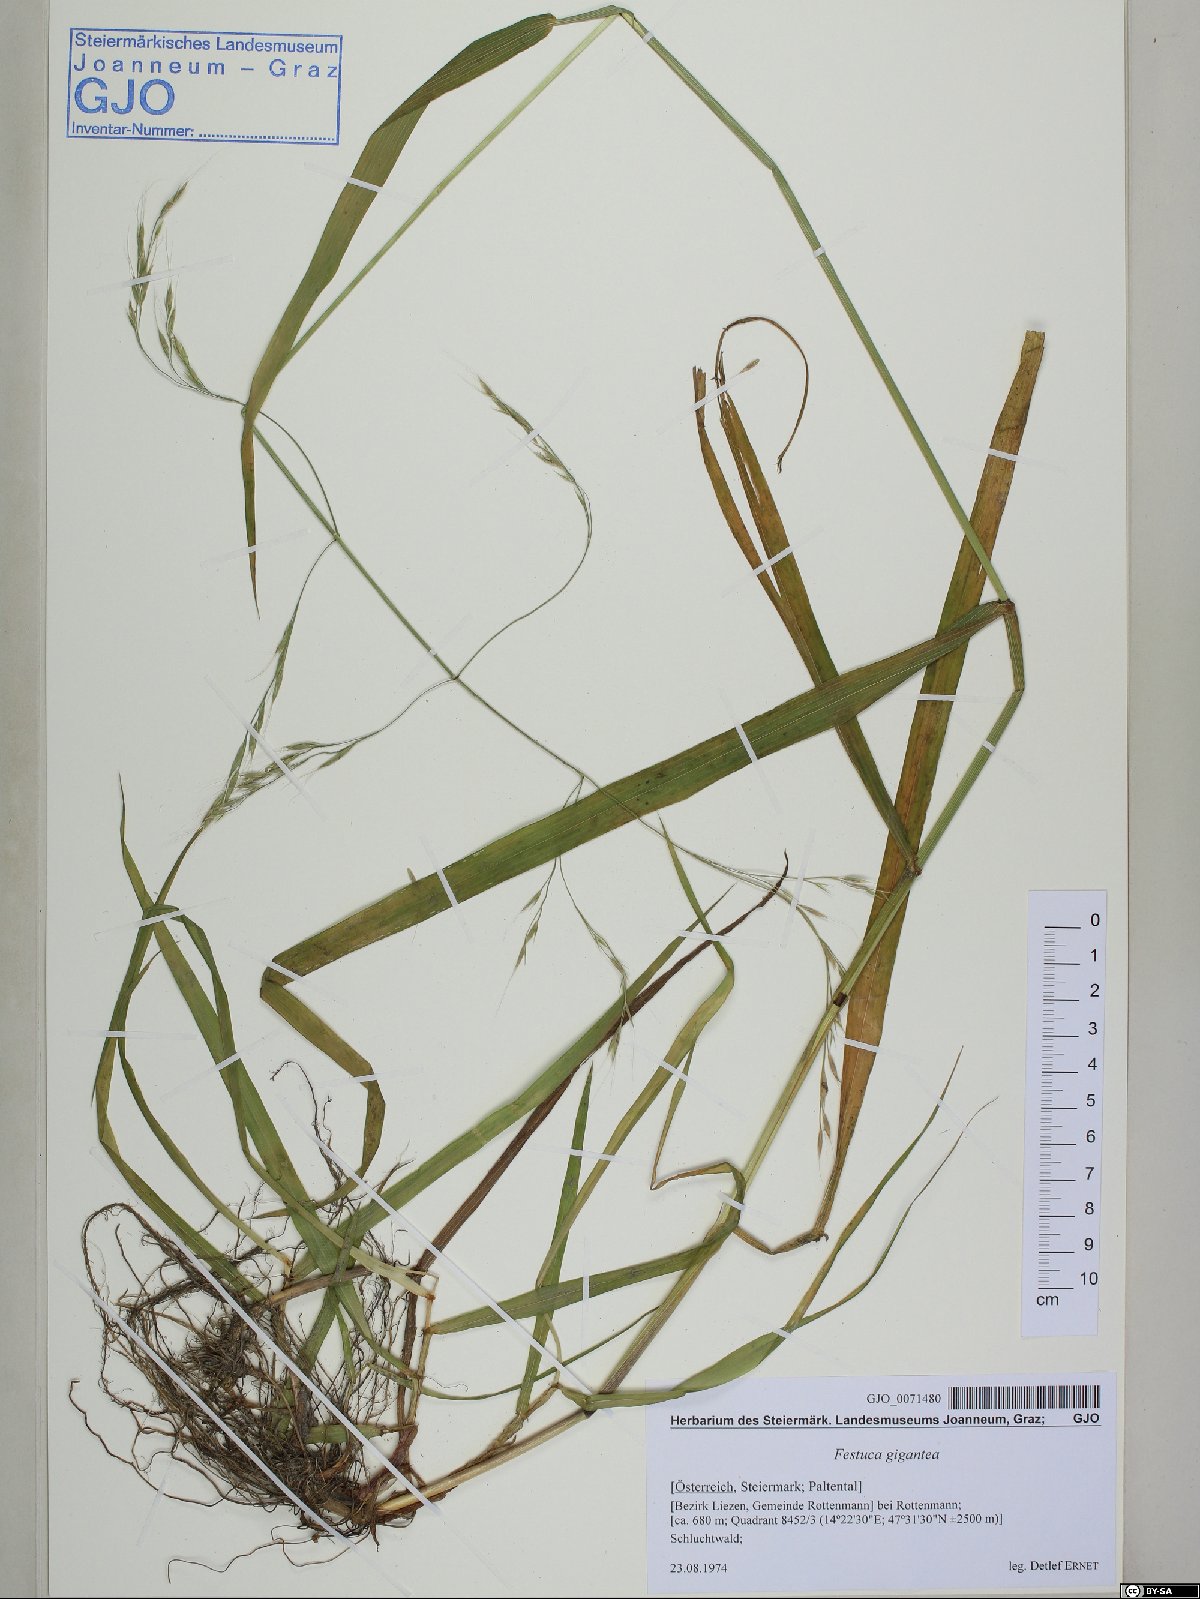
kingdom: Plantae
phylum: Tracheophyta
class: Liliopsida
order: Poales
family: Poaceae
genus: Lolium
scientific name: Lolium giganteum
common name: Giant fescue
